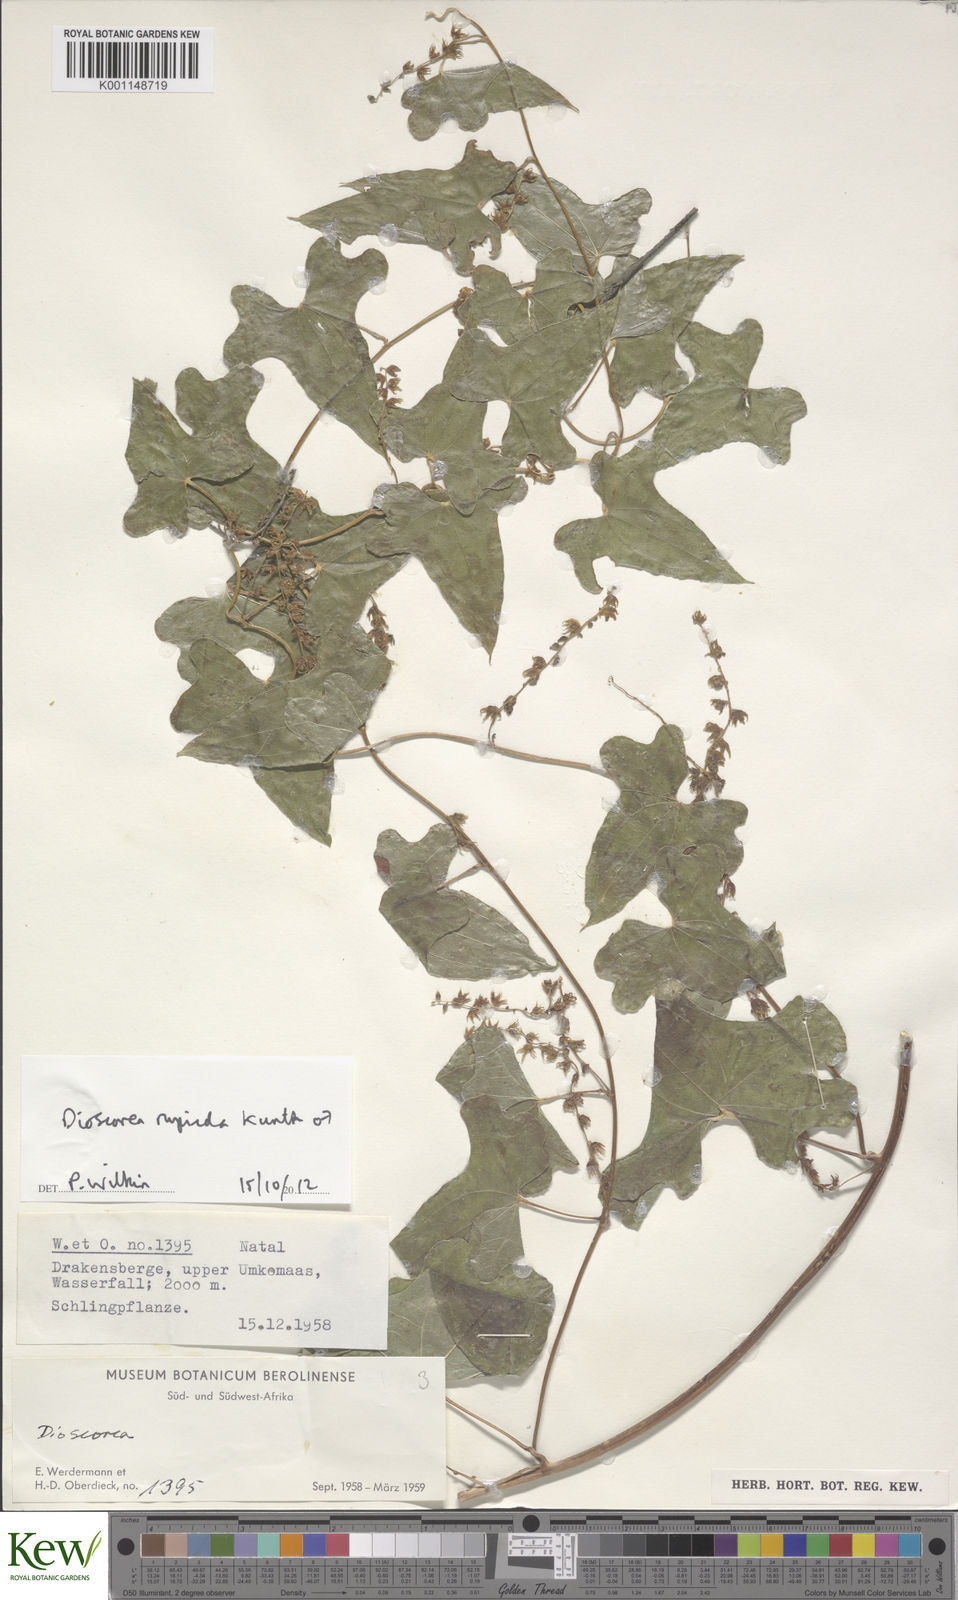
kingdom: Plantae
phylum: Tracheophyta
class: Liliopsida
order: Dioscoreales
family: Dioscoreaceae
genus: Dioscorea
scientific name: Dioscorea rupicola
